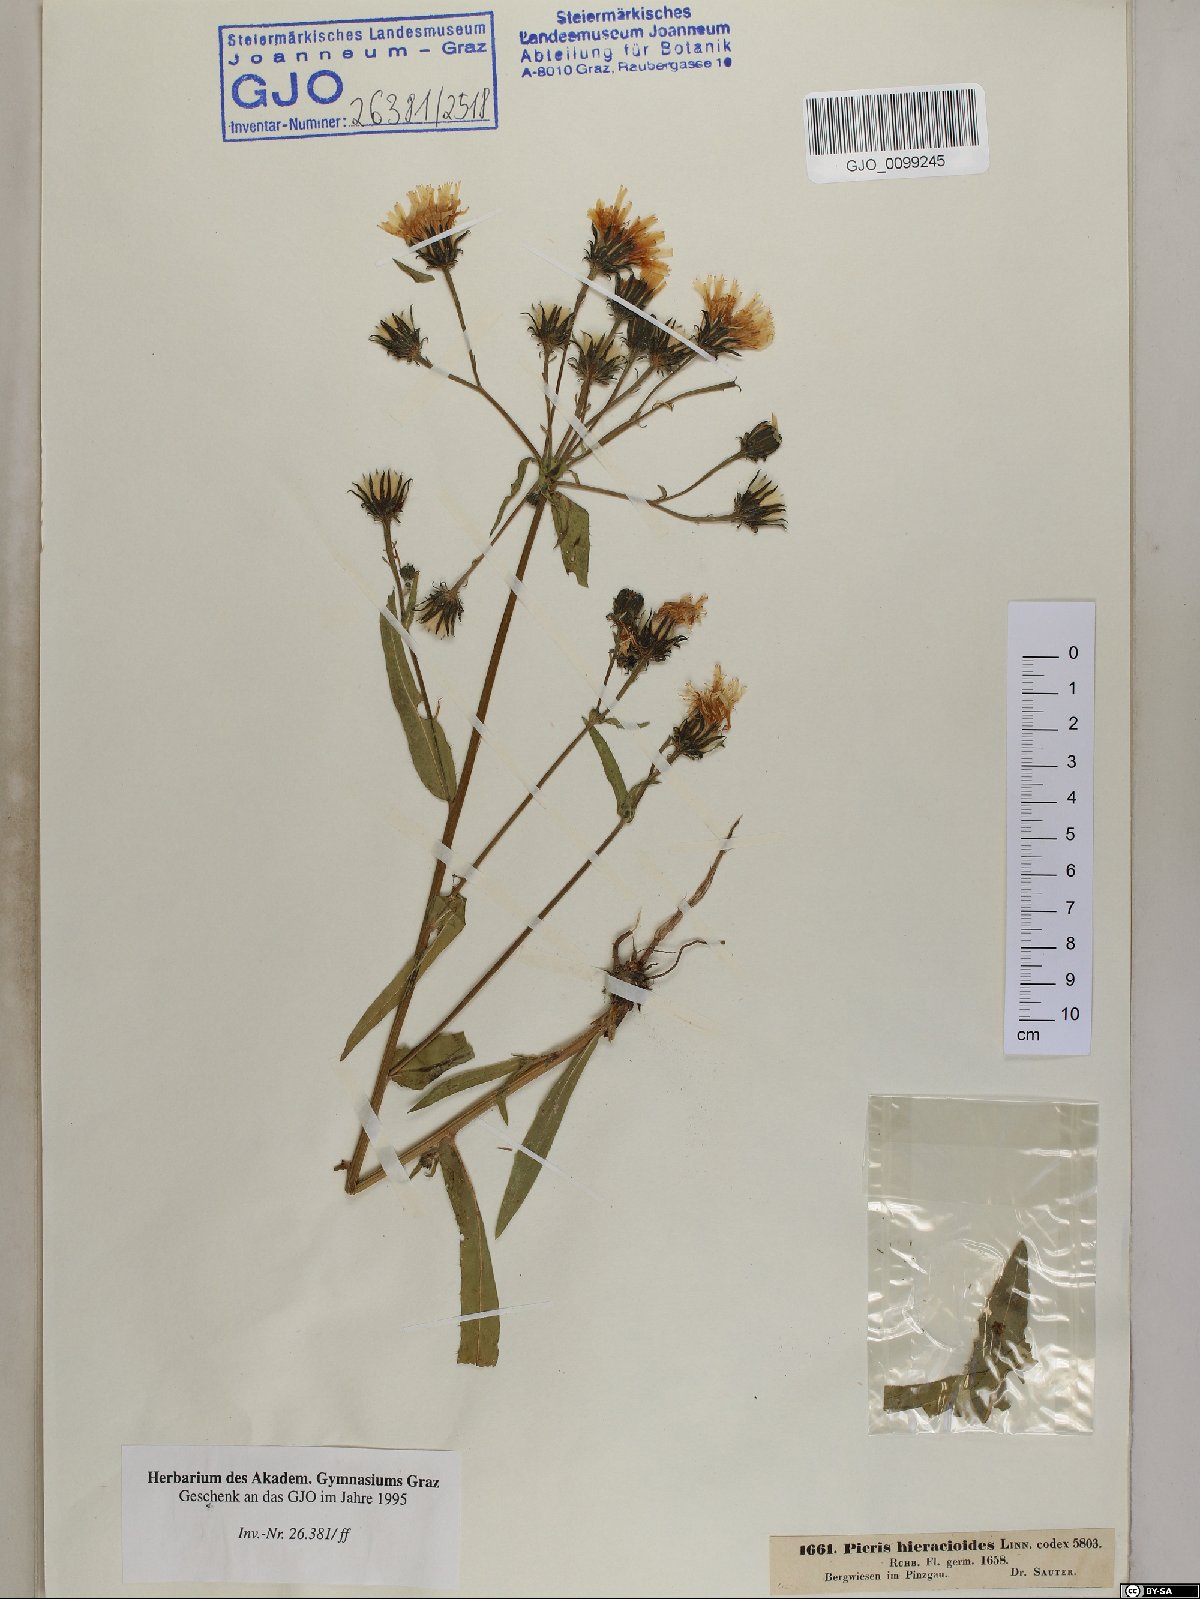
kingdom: Plantae
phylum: Tracheophyta
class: Magnoliopsida
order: Asterales
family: Asteraceae
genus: Picris
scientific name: Picris hieracioides
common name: Hawkweed oxtongue
